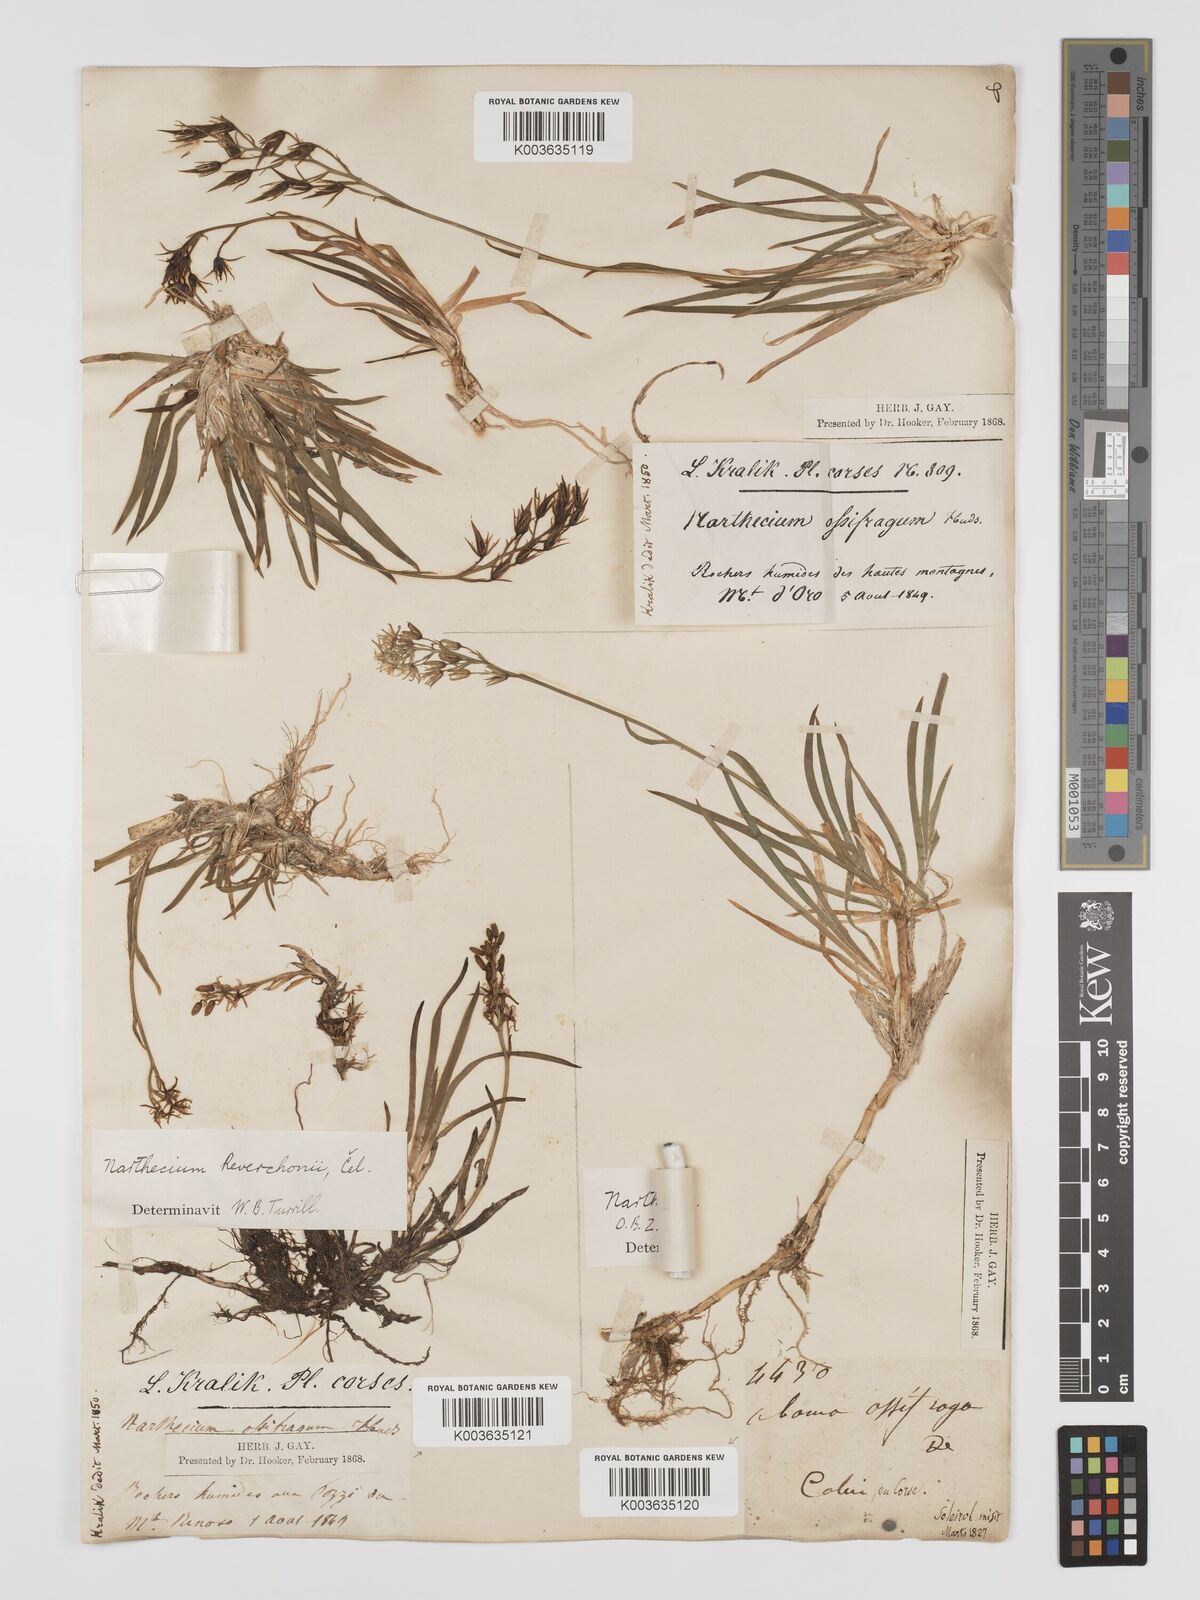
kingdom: Plantae
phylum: Tracheophyta
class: Liliopsida
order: Dioscoreales
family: Nartheciaceae
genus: Narthecium
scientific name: Narthecium reverchonii
